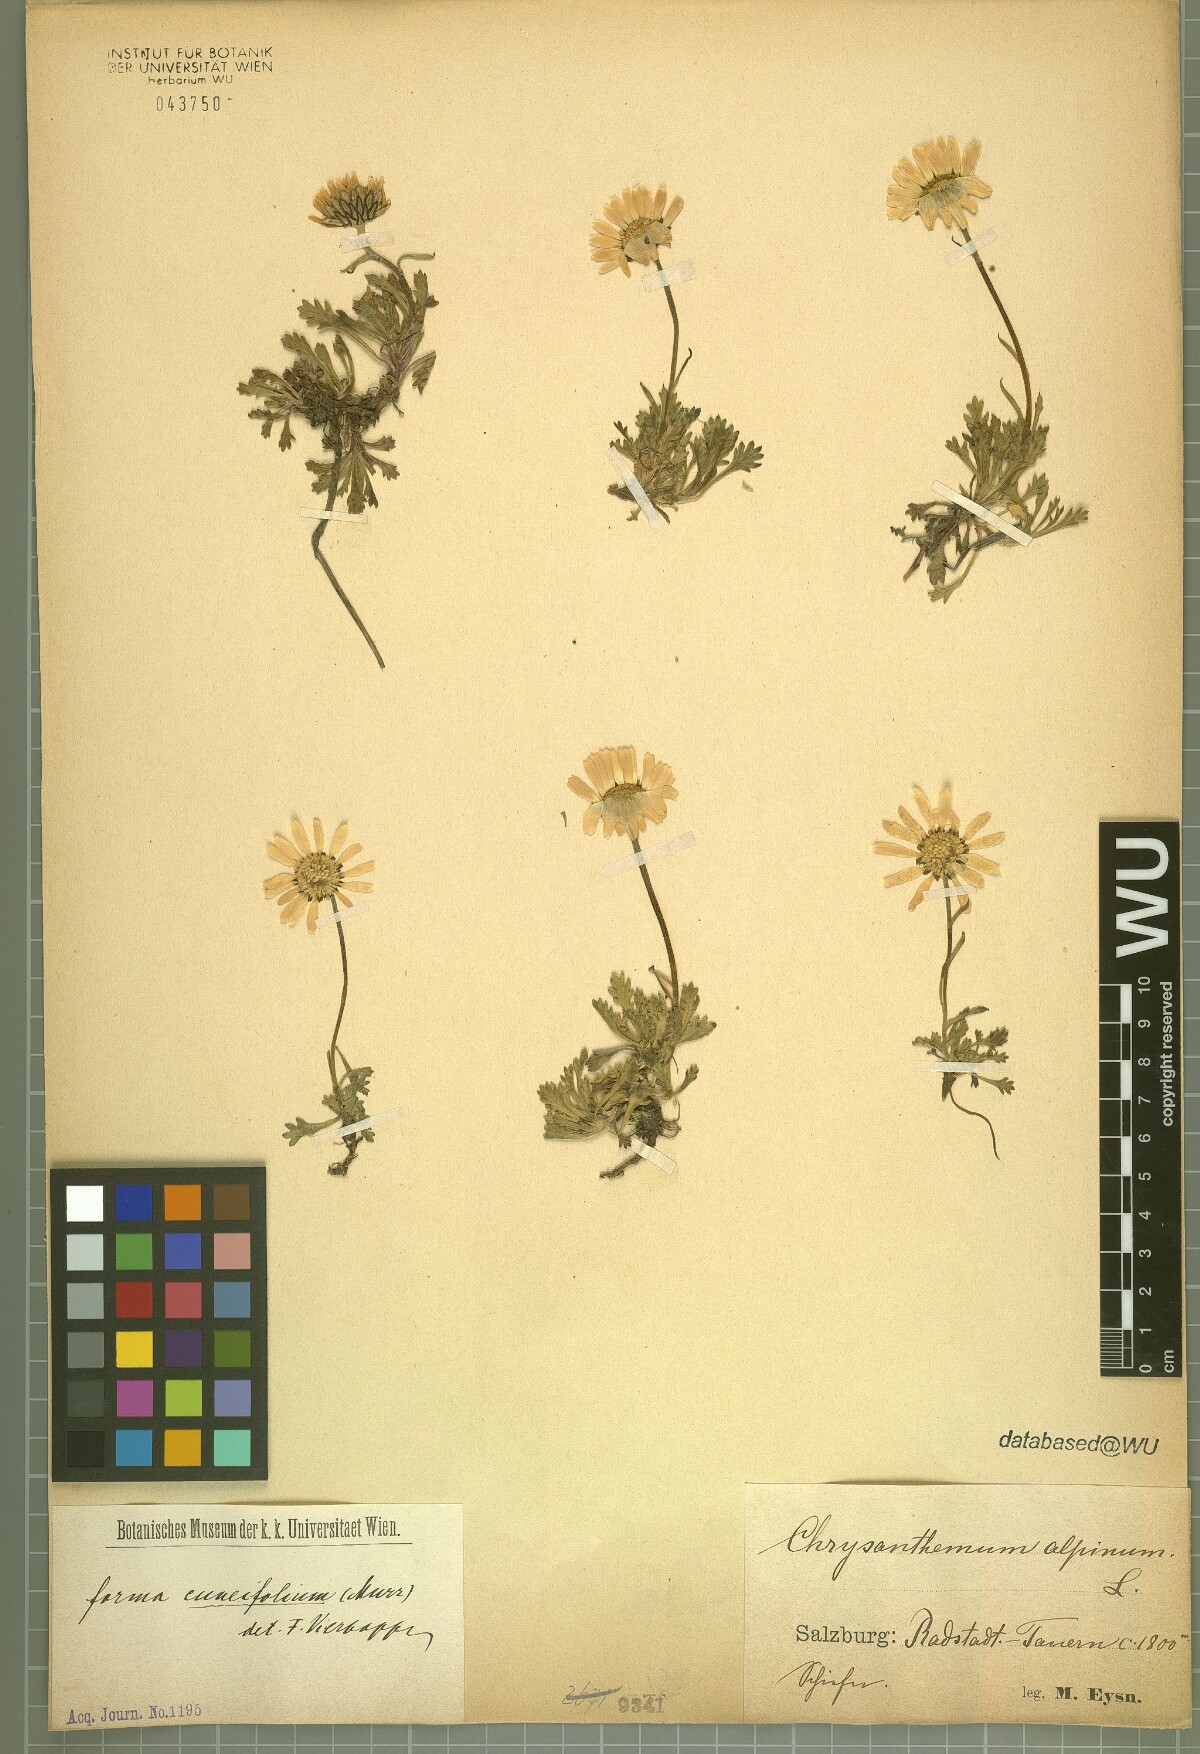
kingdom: Plantae
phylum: Tracheophyta
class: Magnoliopsida
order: Asterales
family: Asteraceae
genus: Leucanthemopsis
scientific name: Leucanthemopsis alpina
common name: Alpine moon daisy
